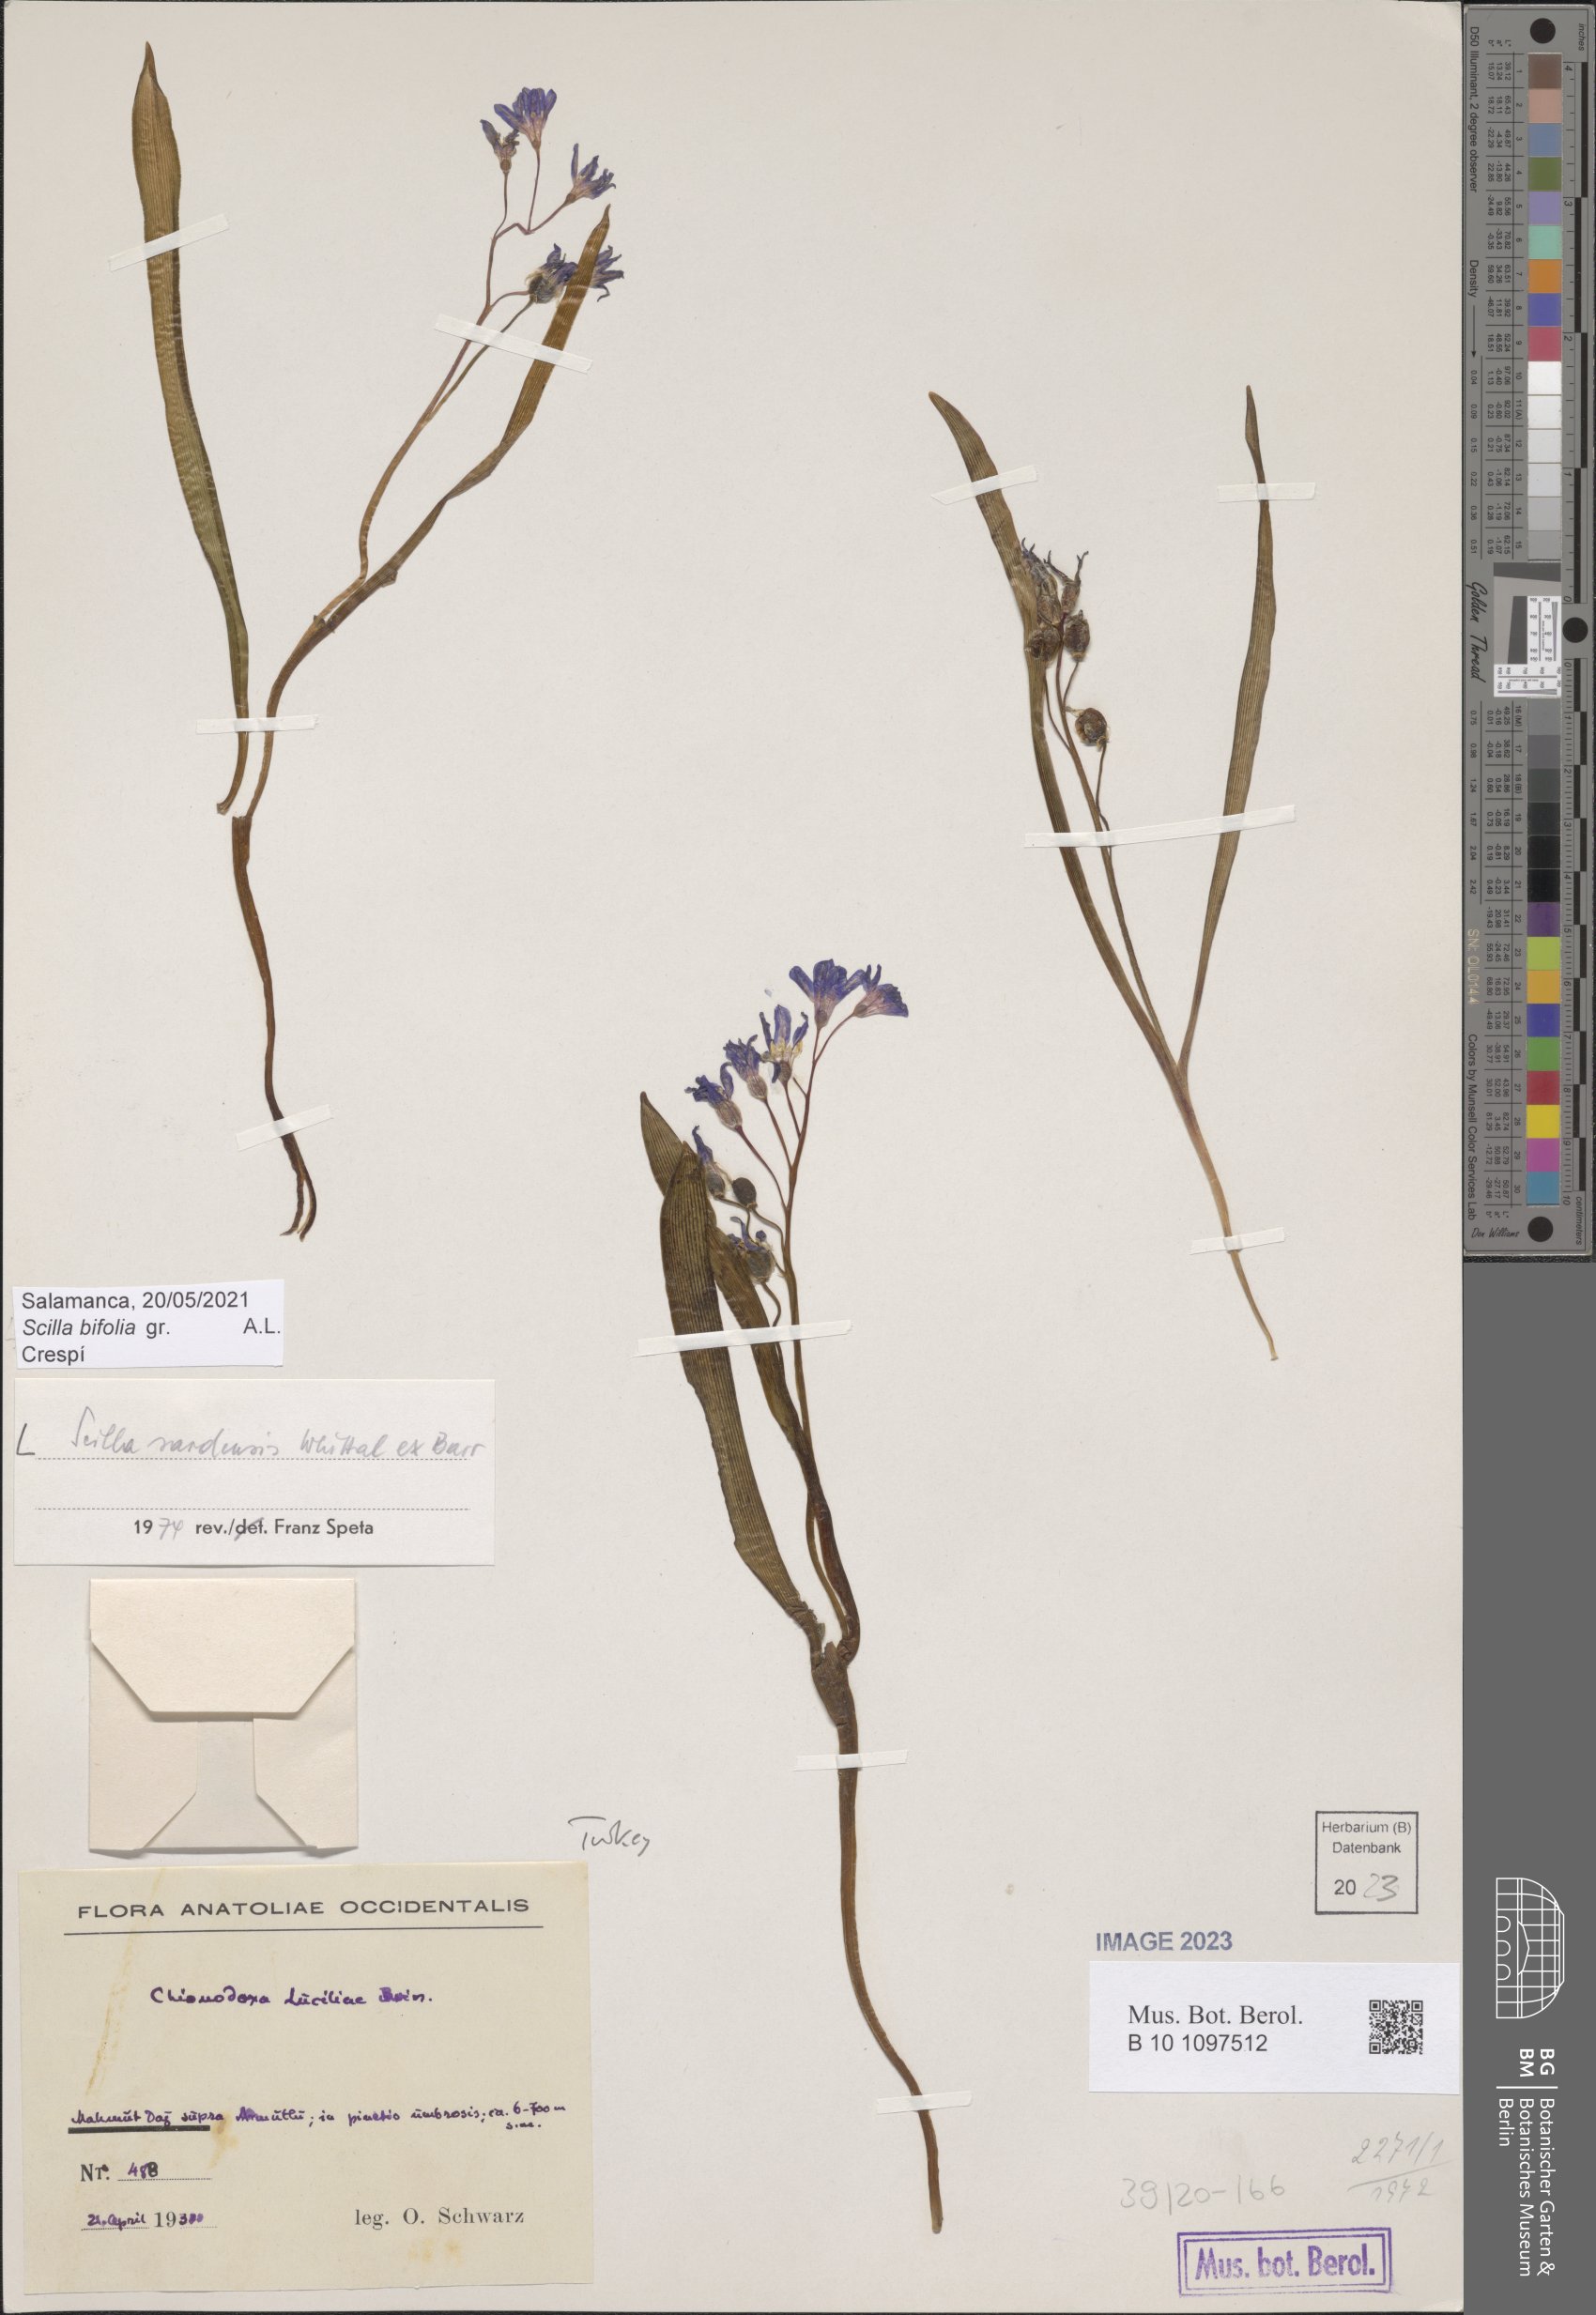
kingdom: Plantae
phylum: Tracheophyta
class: Liliopsida
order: Asparagales
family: Asparagaceae
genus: Scilla
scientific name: Scilla sardensis
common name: Lesser glory-of-the-snow
